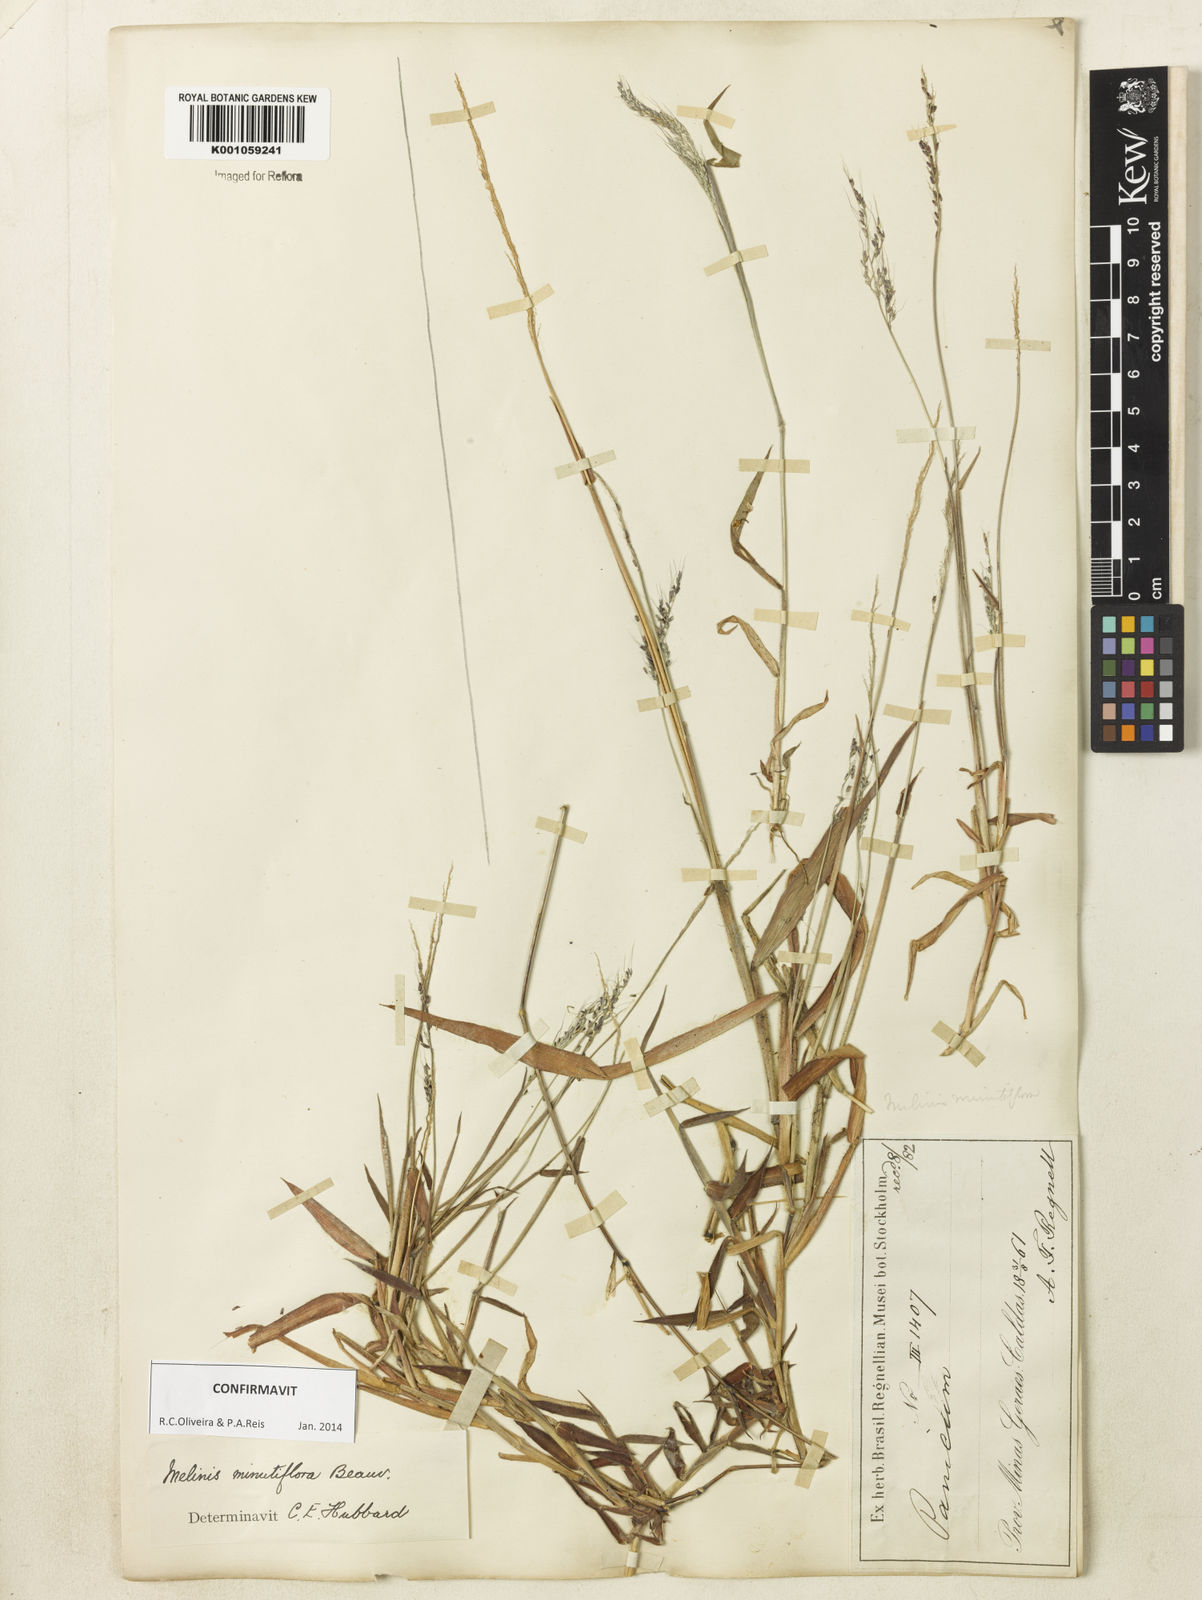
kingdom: Plantae
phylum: Tracheophyta
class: Liliopsida
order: Poales
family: Poaceae
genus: Melinis
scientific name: Melinis minutiflora
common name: Molassesgrass
